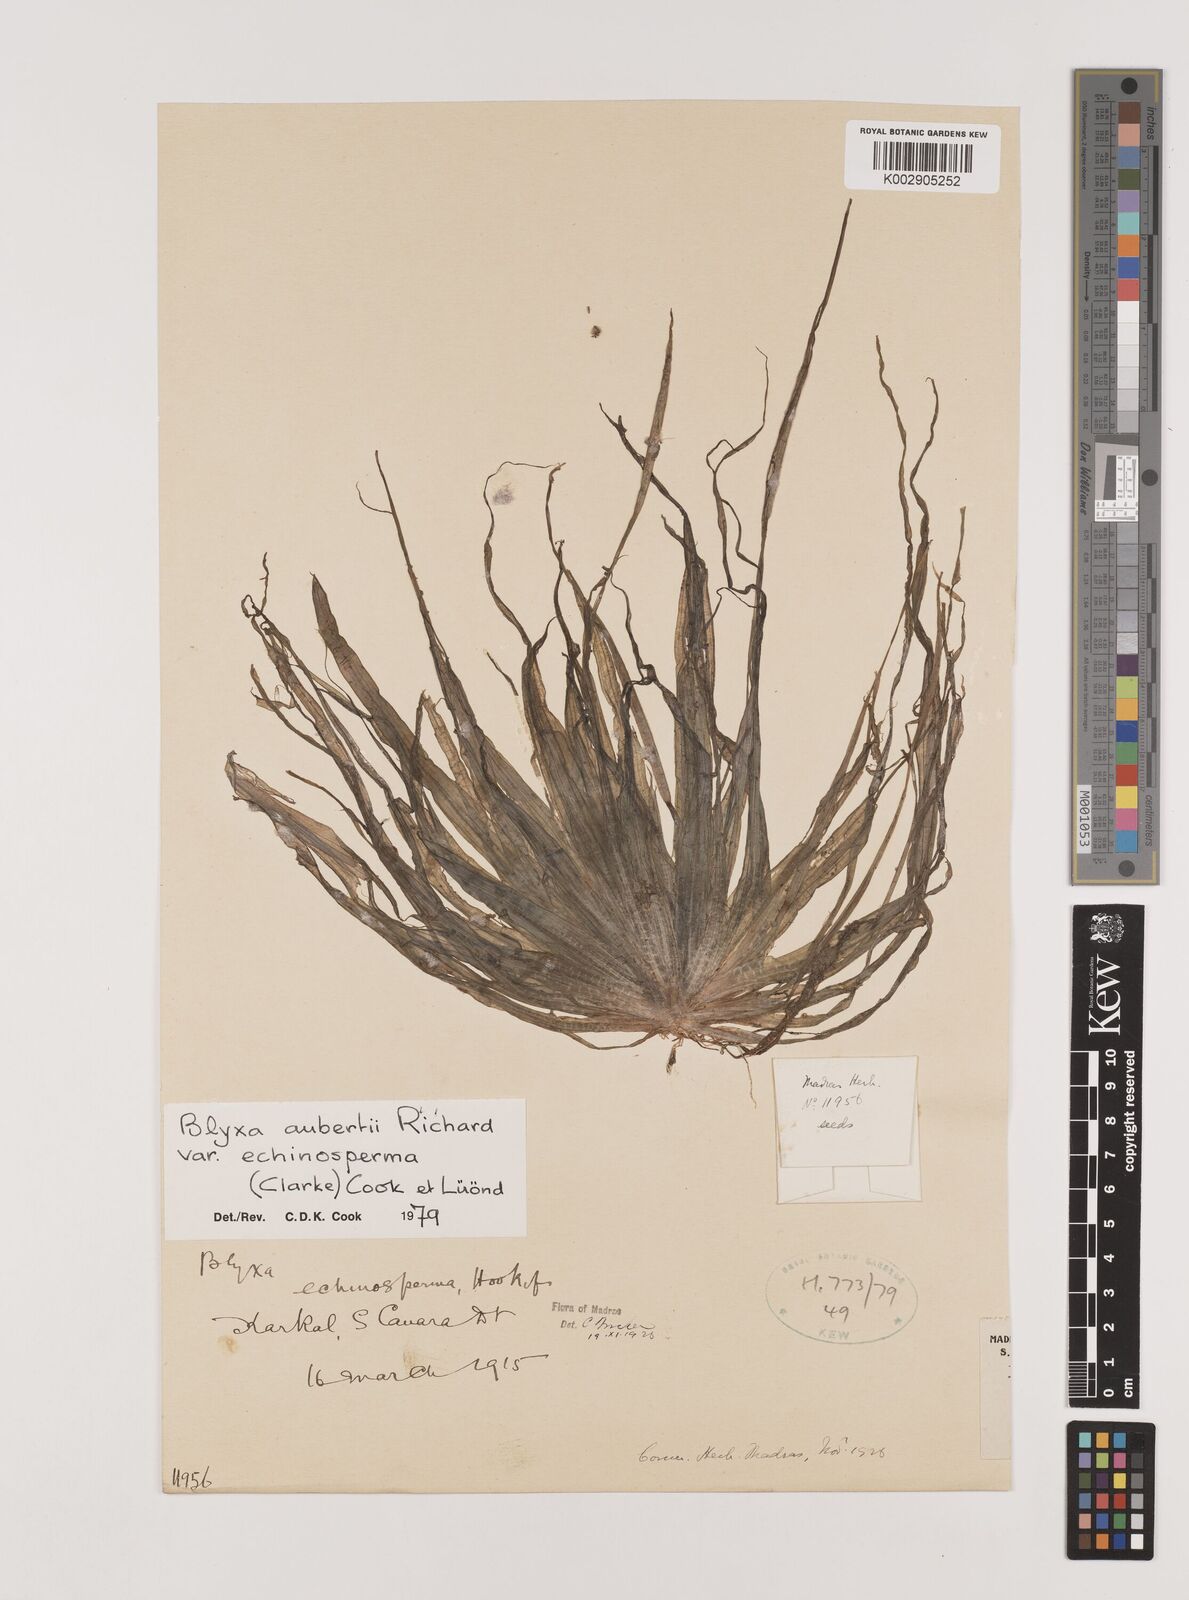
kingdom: Plantae
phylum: Tracheophyta
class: Liliopsida
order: Alismatales
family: Hydrocharitaceae
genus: Blyxa
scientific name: Blyxa echinosperma
